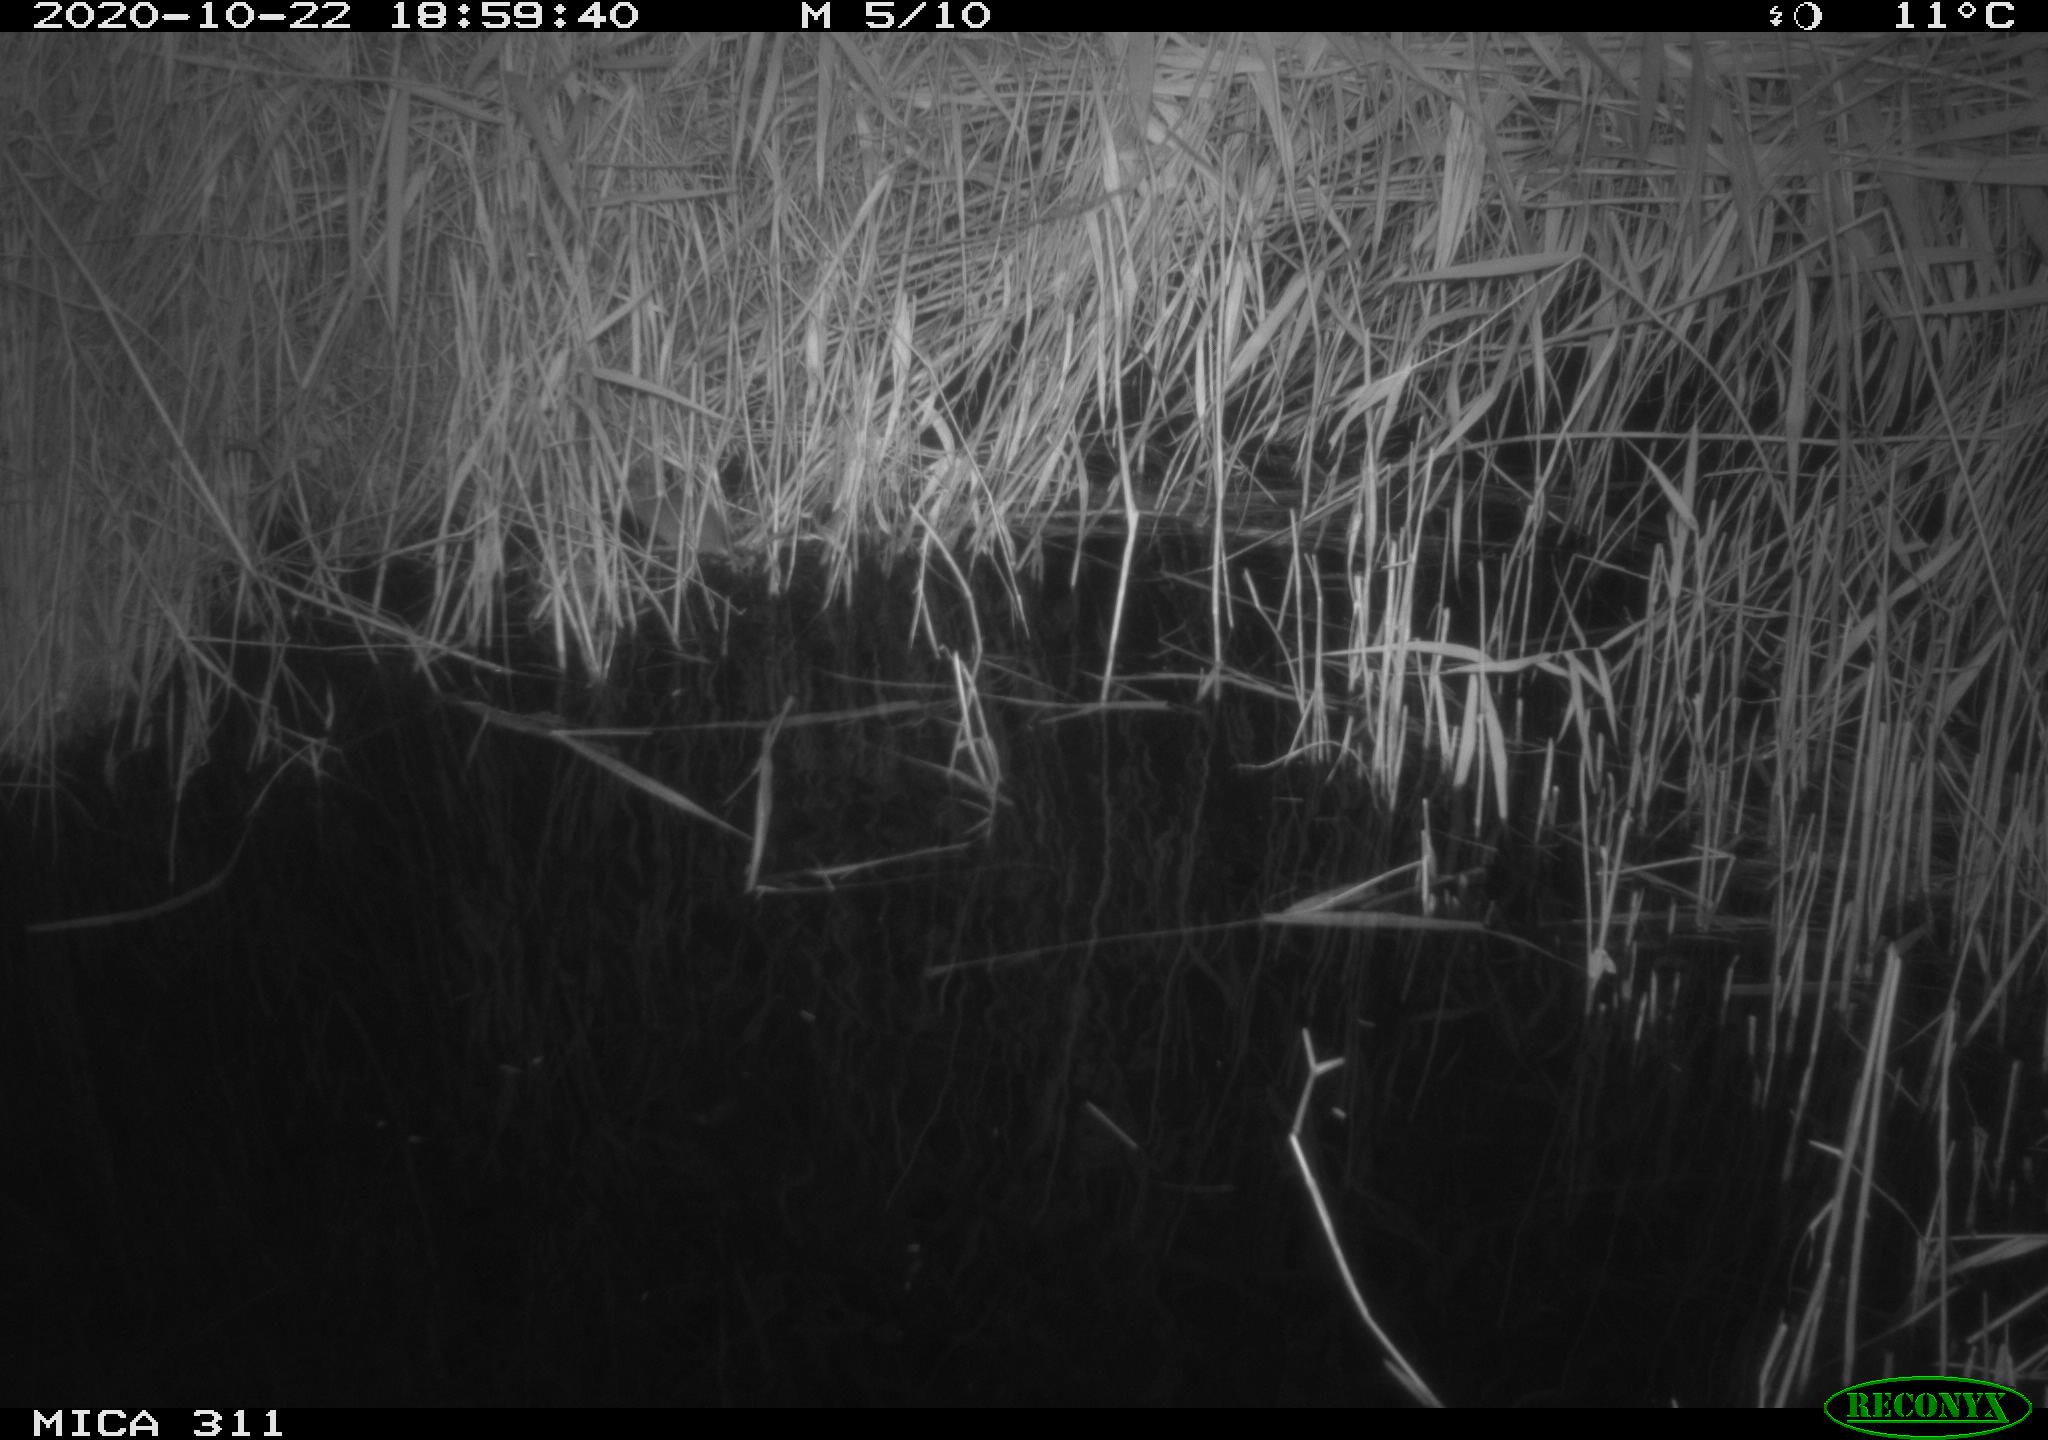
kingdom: Animalia
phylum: Chordata
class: Mammalia
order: Rodentia
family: Muridae
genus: Rattus
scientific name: Rattus norvegicus
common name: Brown rat
